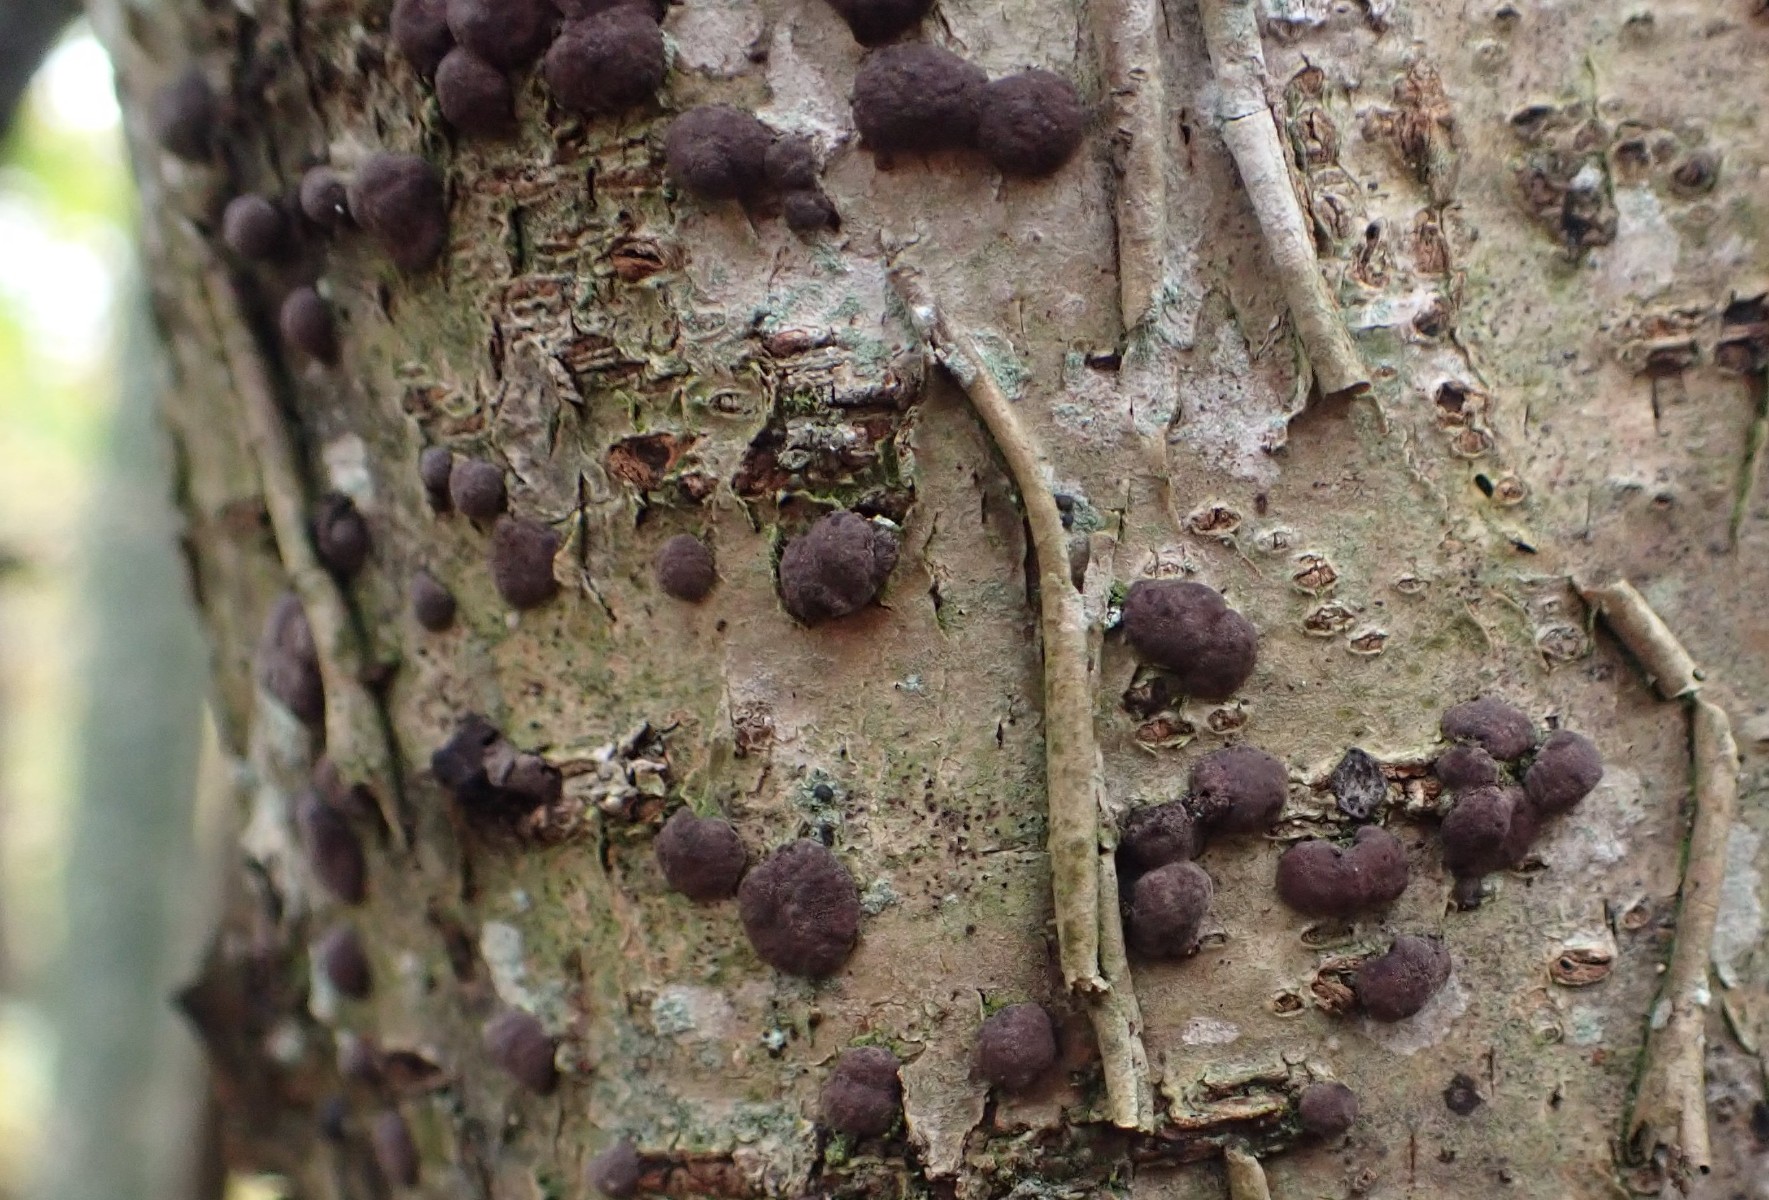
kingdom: Fungi
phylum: Ascomycota
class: Sordariomycetes
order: Xylariales
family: Hypoxylaceae
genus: Hypoxylon
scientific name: Hypoxylon fuscum
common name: kegleformet kulbær
